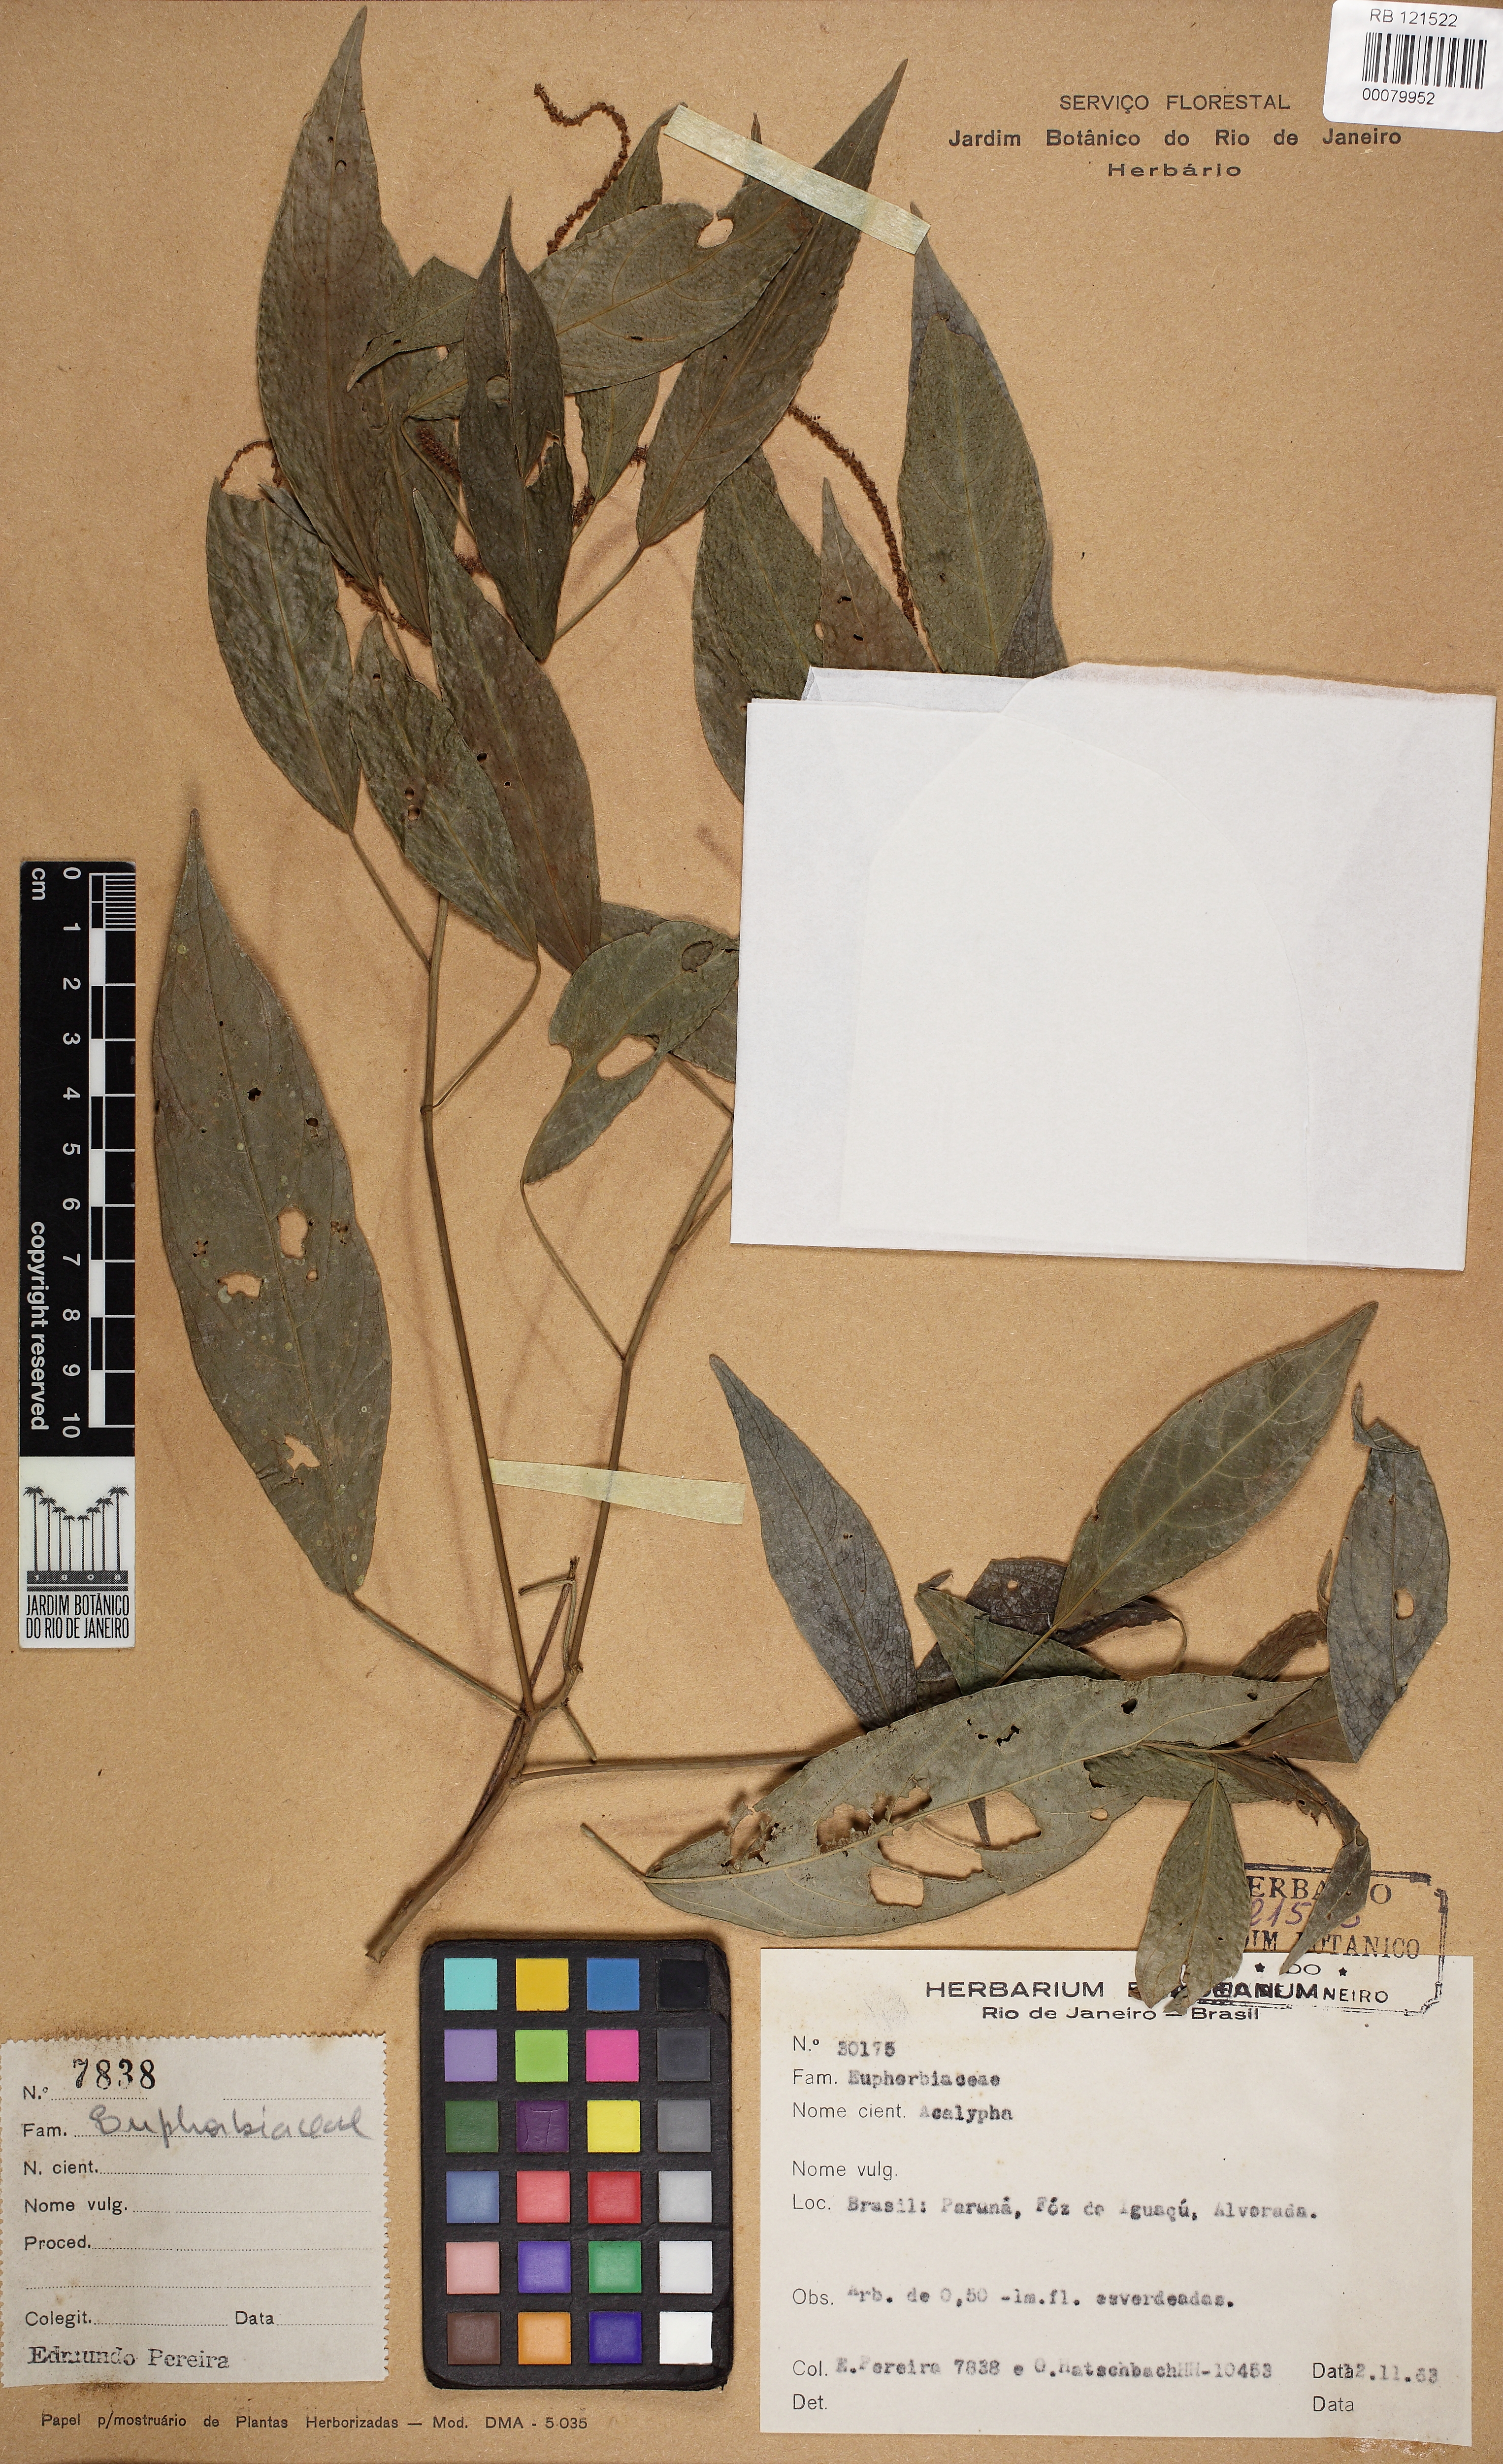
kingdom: Plantae
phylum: Tracheophyta
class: Magnoliopsida
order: Malpighiales
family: Euphorbiaceae
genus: Acalypha
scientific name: Acalypha digynostachya
